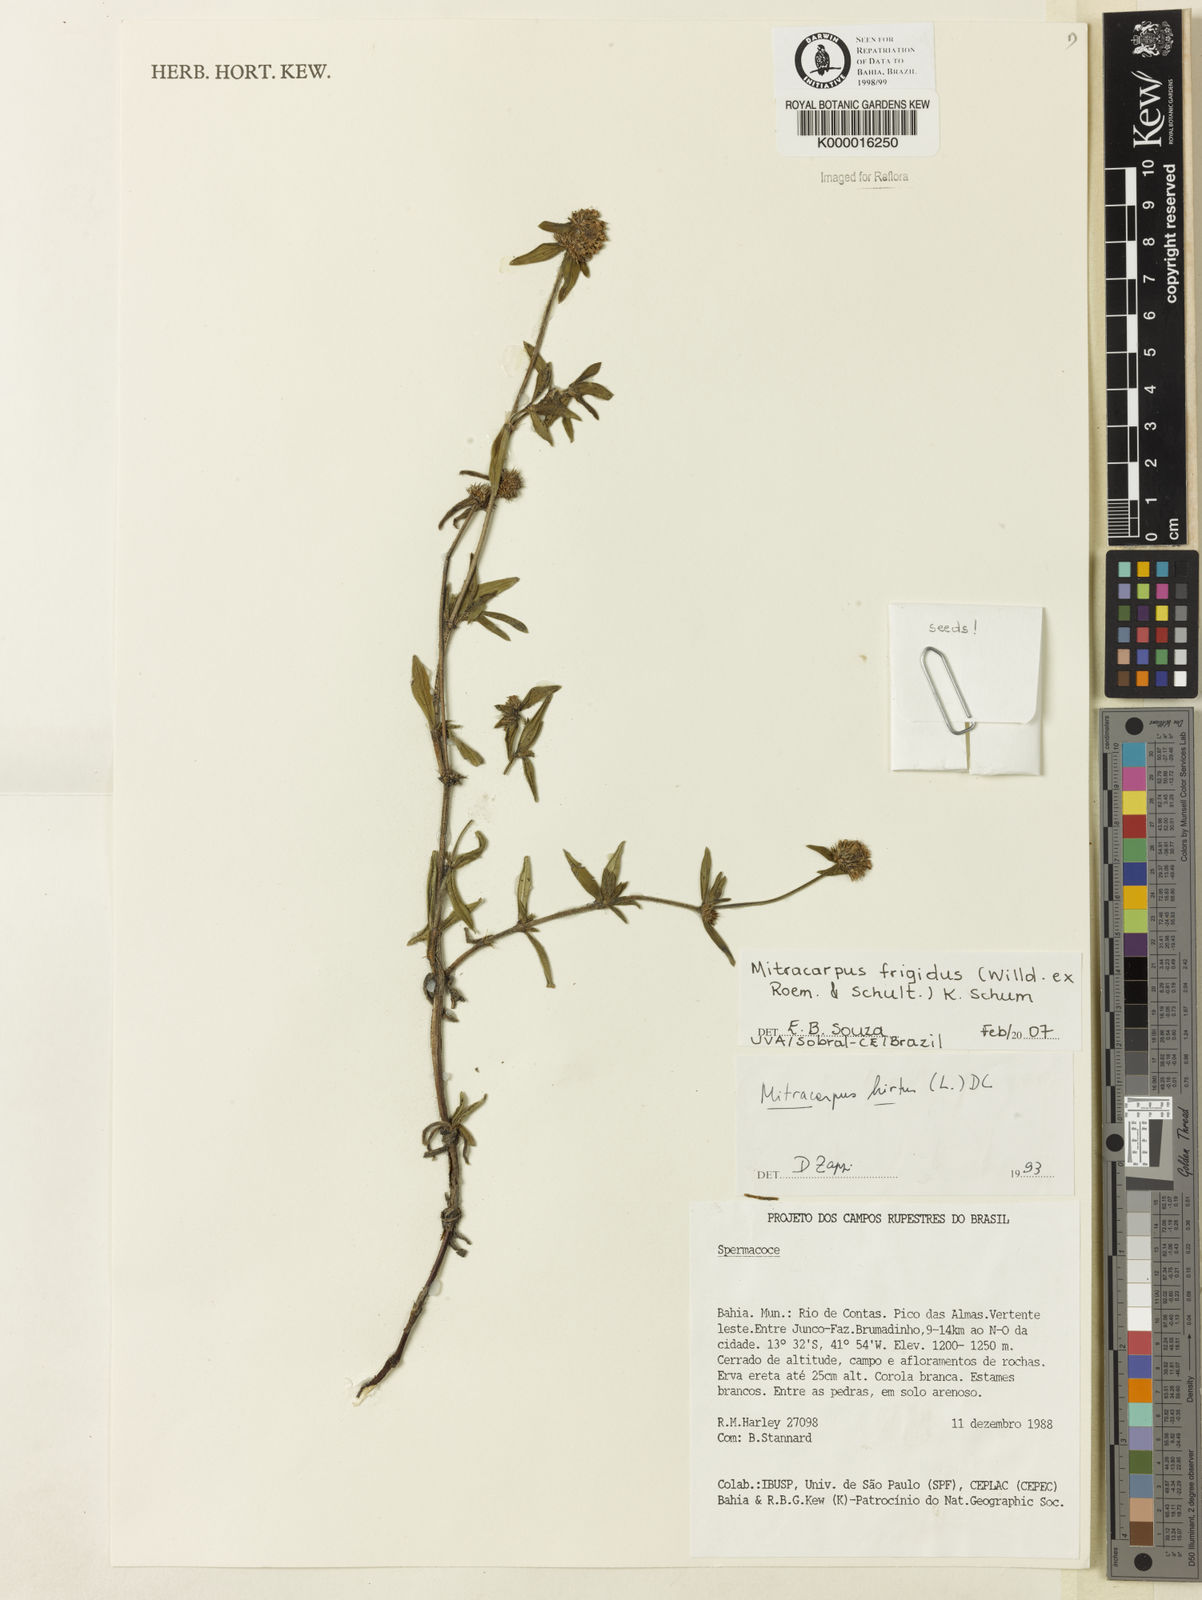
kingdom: Plantae
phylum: Tracheophyta
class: Magnoliopsida
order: Gentianales
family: Rubiaceae
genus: Mitracarpus
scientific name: Mitracarpus frigidus
